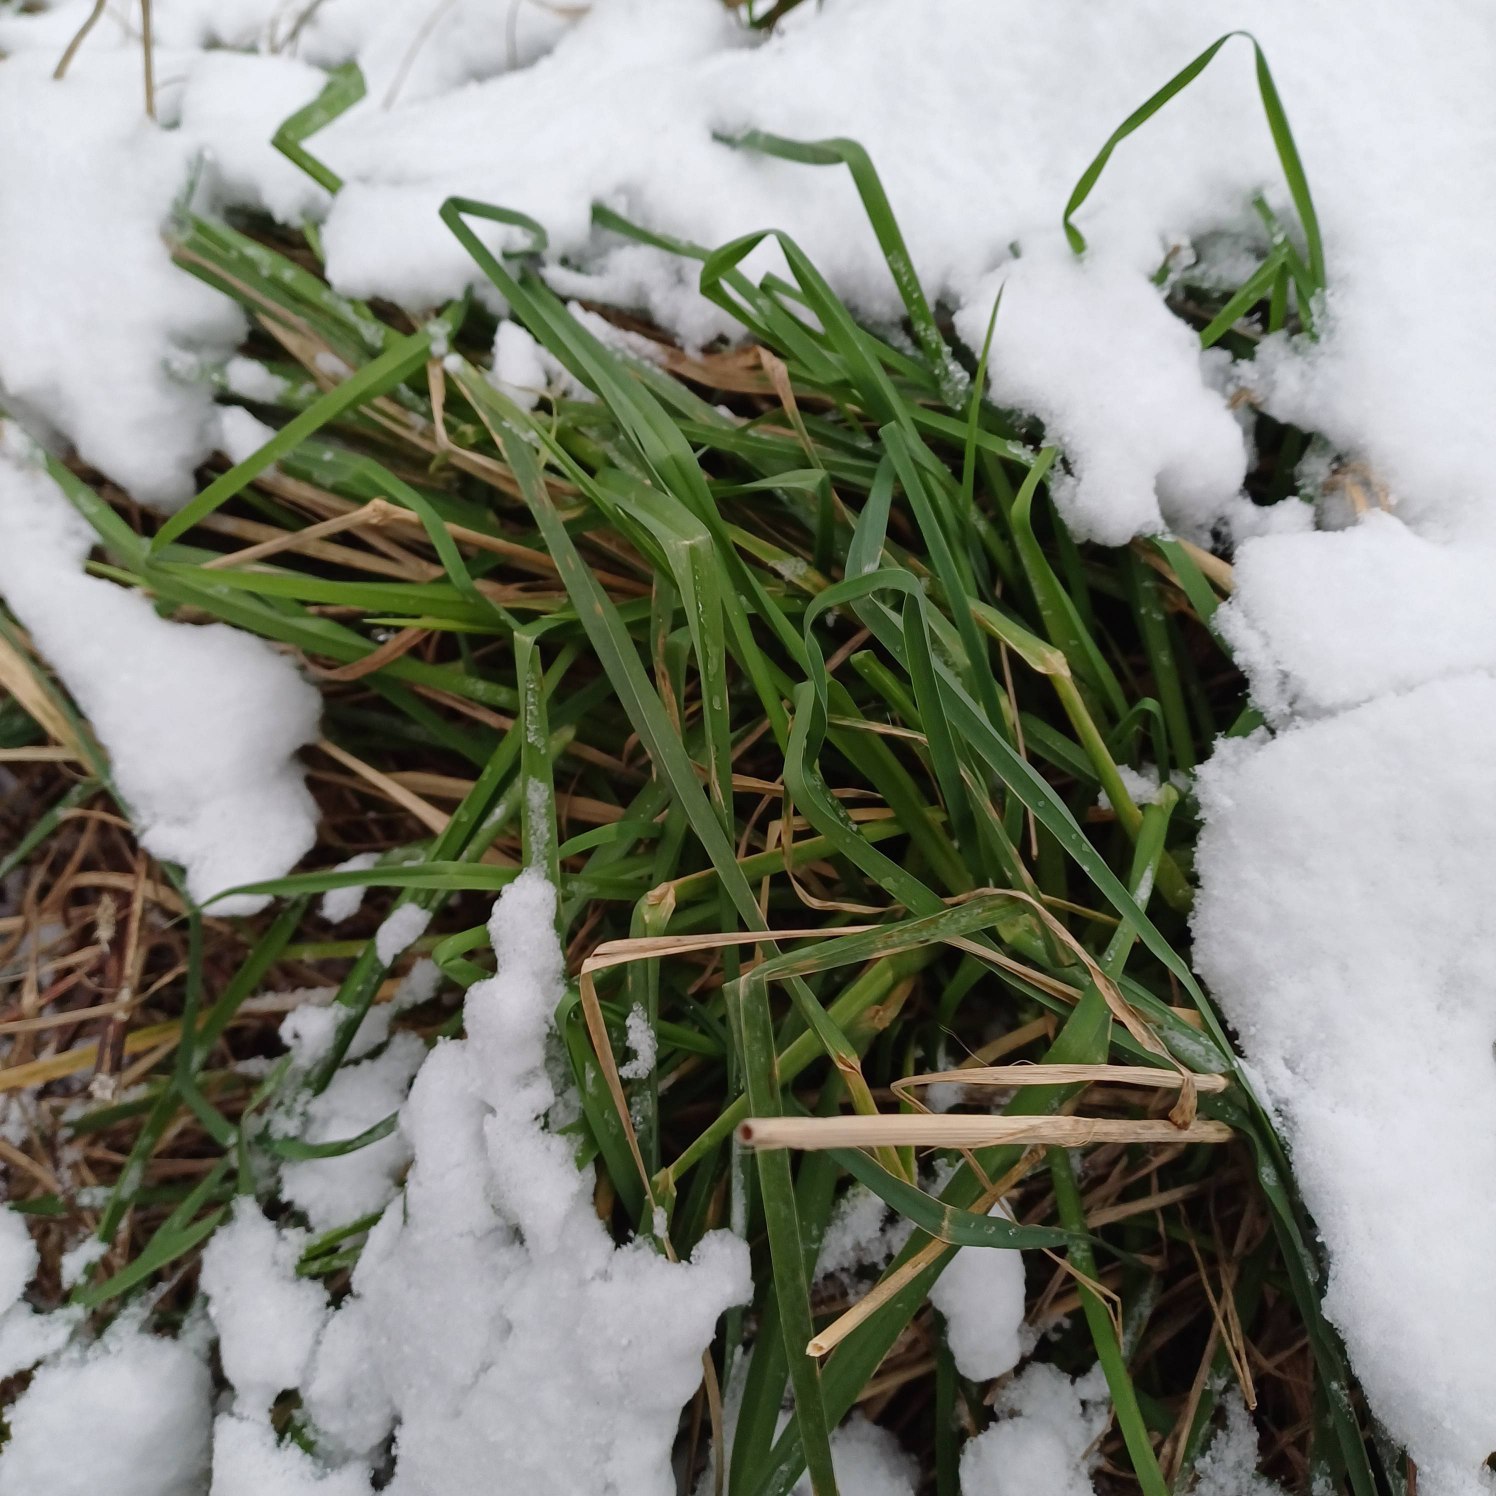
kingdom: Plantae
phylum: Tracheophyta
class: Liliopsida
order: Poales
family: Poaceae
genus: Dactylis
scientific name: Dactylis glomerata
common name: Almindelig hundegræs
